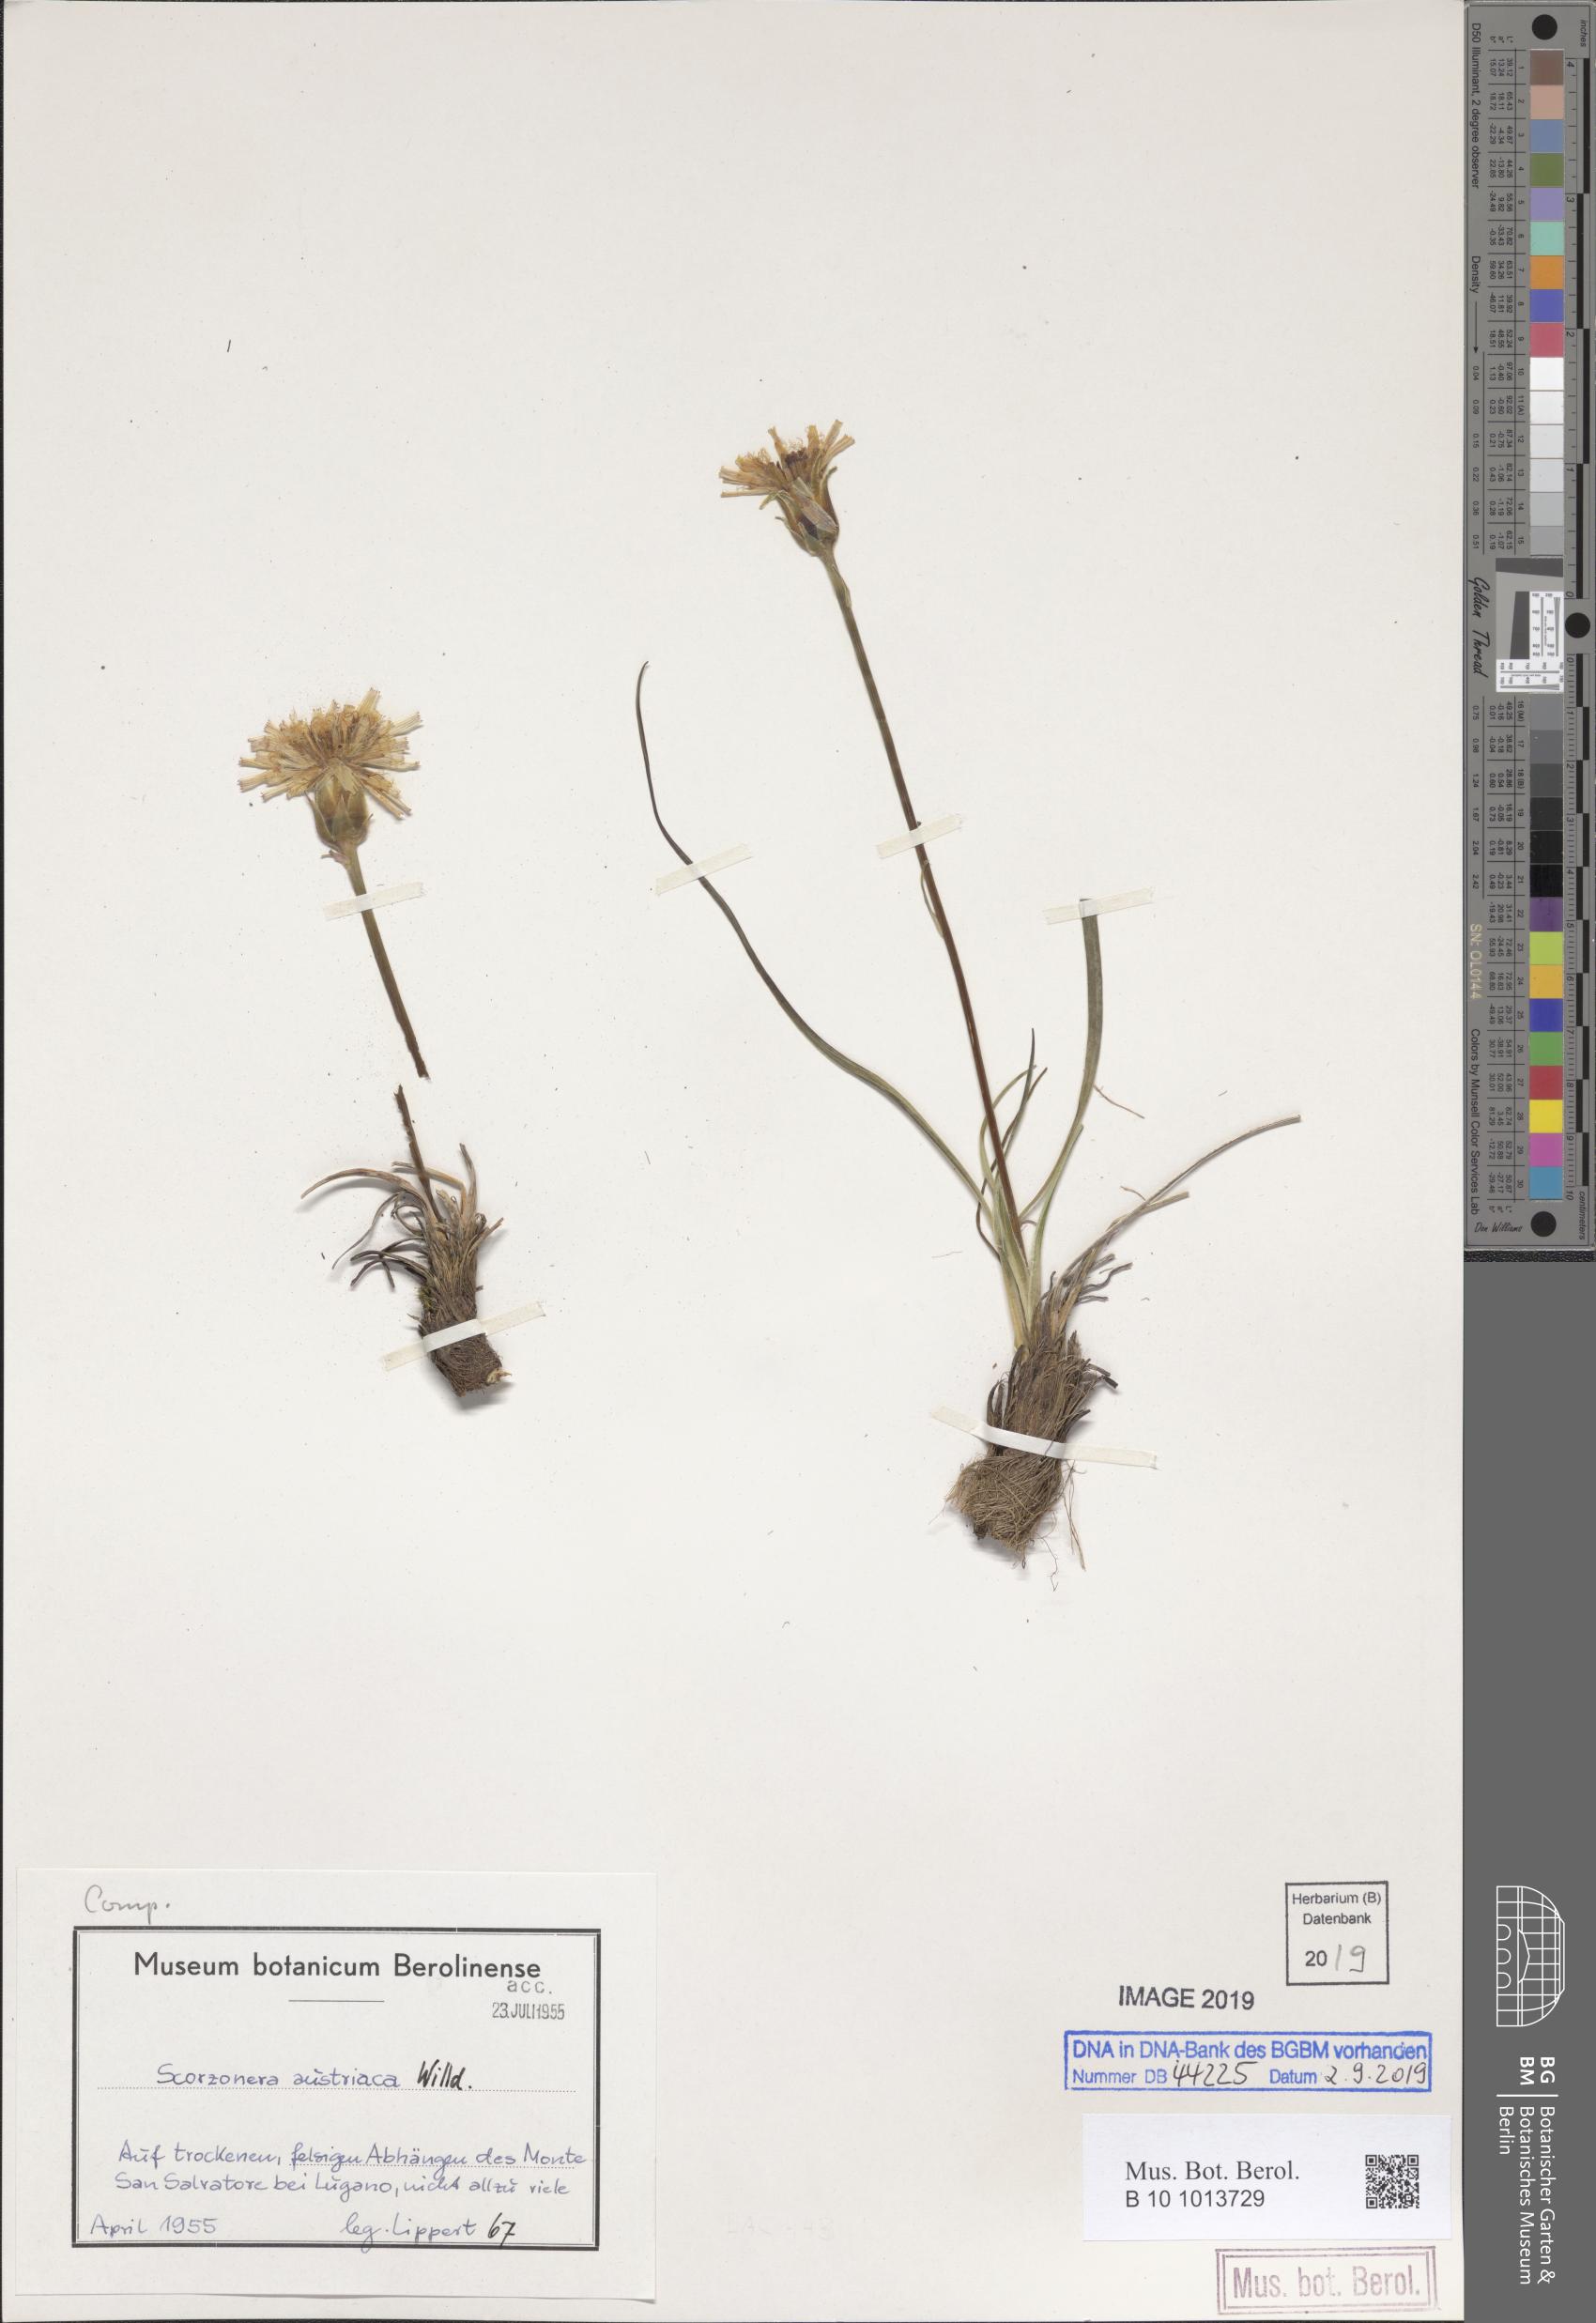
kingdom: Plantae
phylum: Tracheophyta
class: Magnoliopsida
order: Asterales
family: Asteraceae
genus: Takhtajaniantha
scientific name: Takhtajaniantha austriaca
